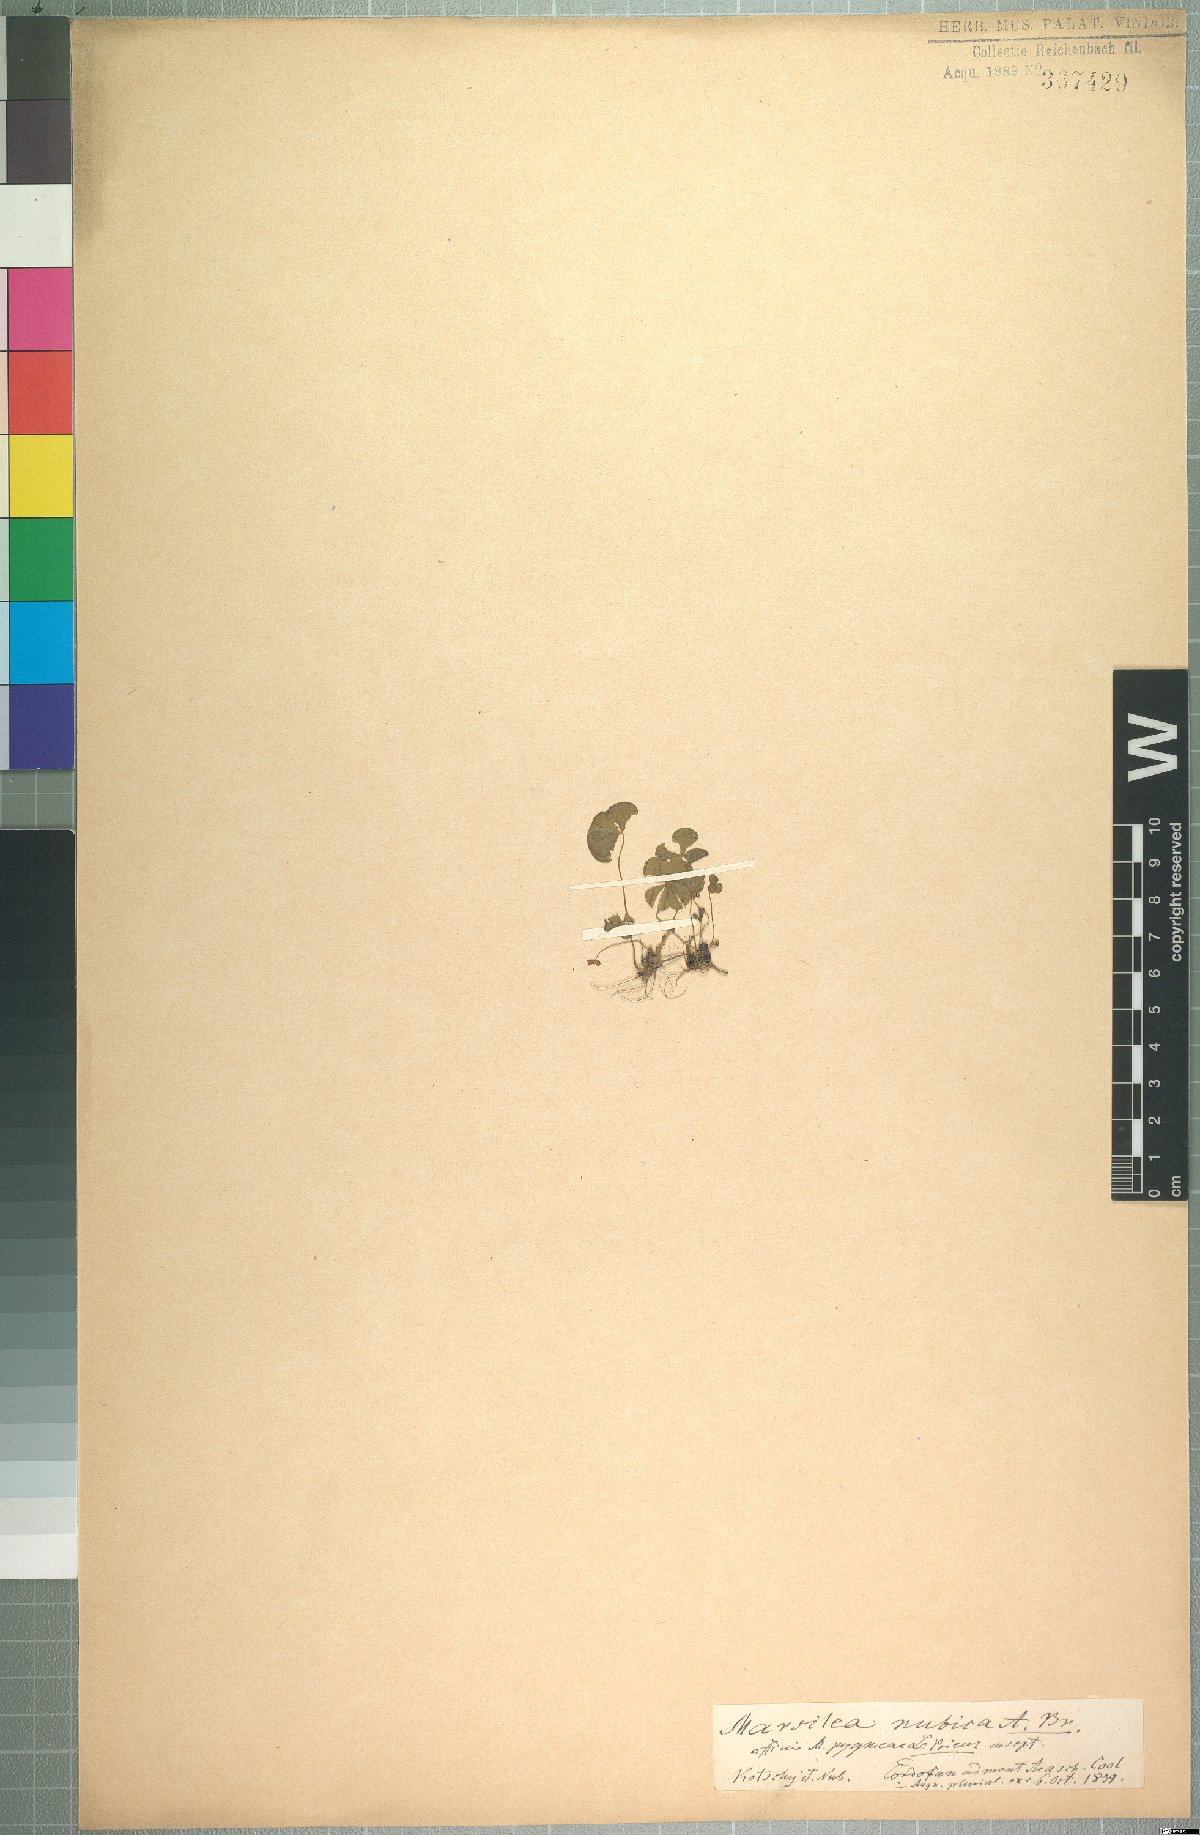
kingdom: Plantae
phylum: Tracheophyta
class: Polypodiopsida
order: Salviniales
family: Marsileaceae
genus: Marsilea
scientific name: Marsilea nubica
